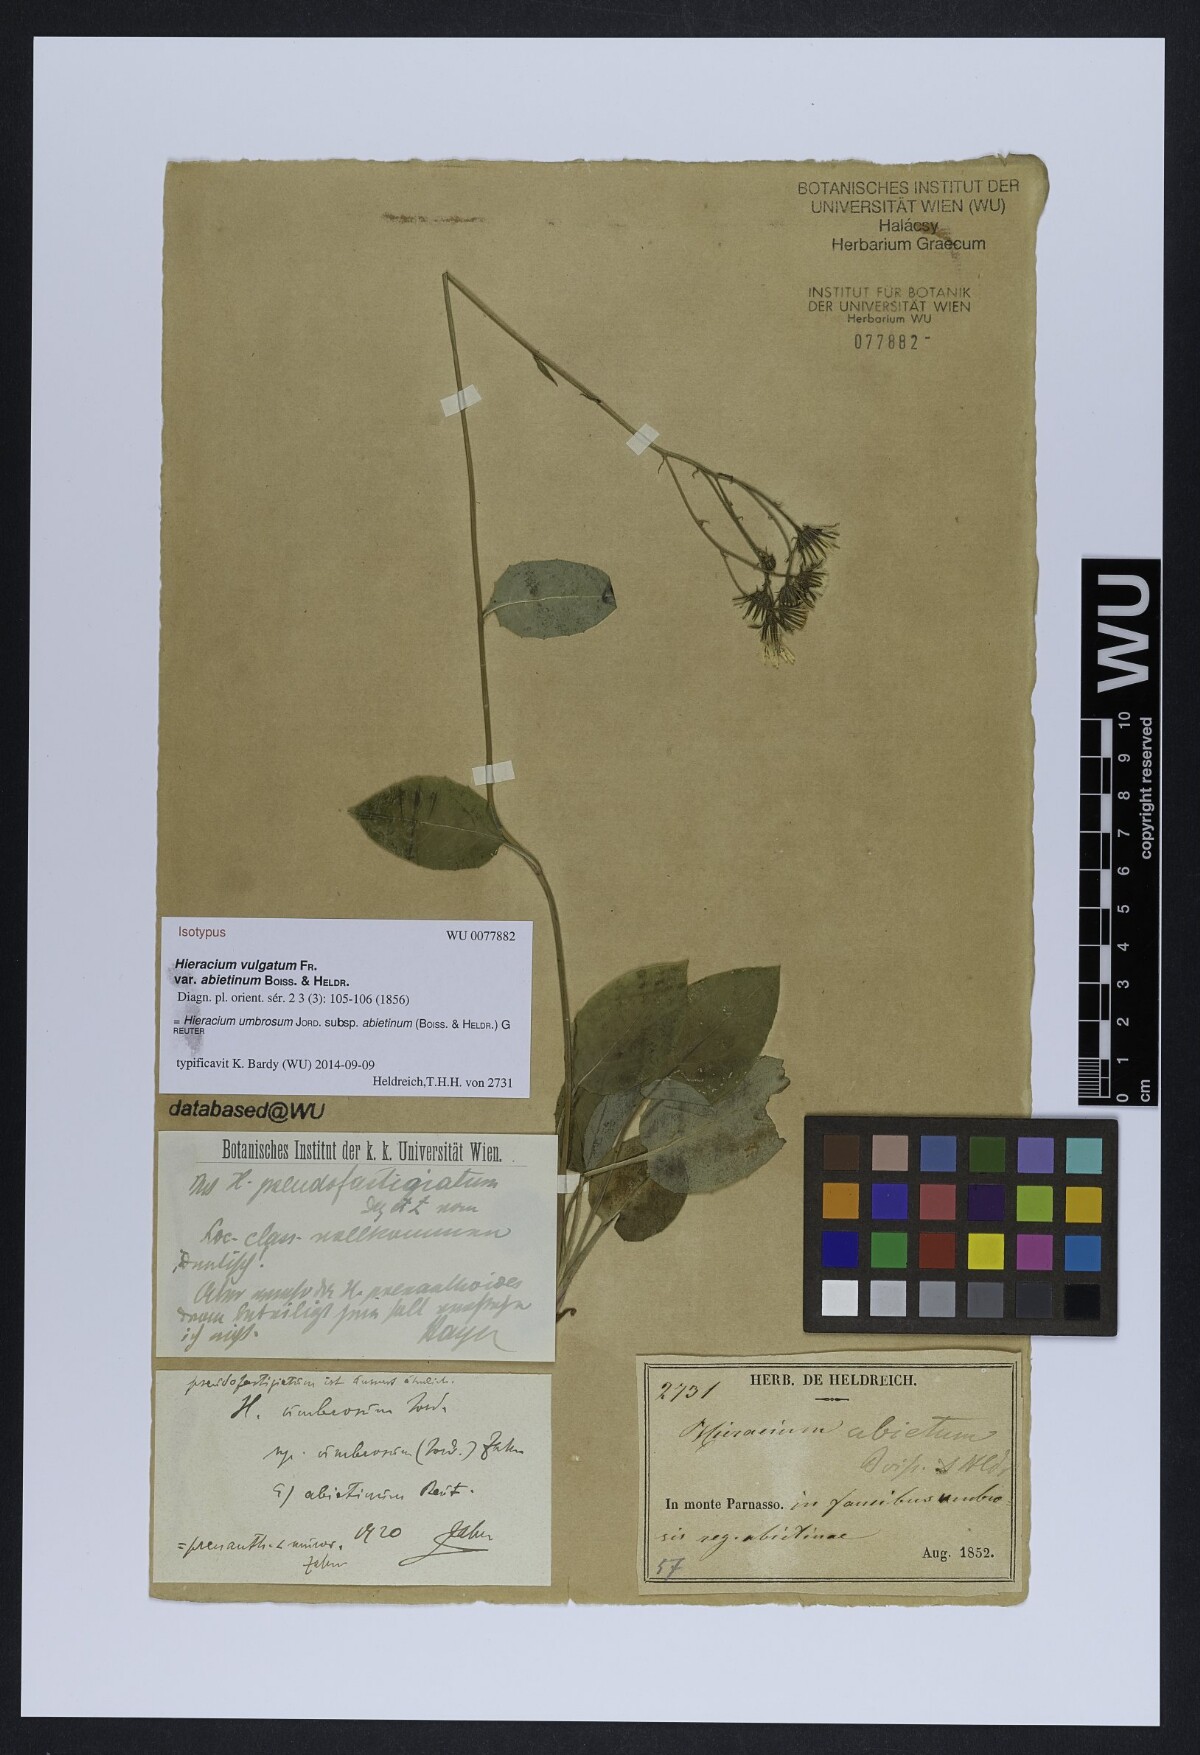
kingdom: Plantae
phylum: Tracheophyta
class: Magnoliopsida
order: Asterales
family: Asteraceae
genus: Hieracium
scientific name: Hieracium umbrosum
